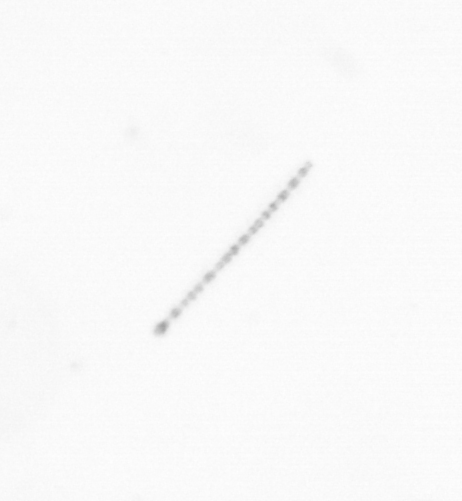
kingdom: Chromista
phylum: Ochrophyta
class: Bacillariophyceae
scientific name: Bacillariophyceae
